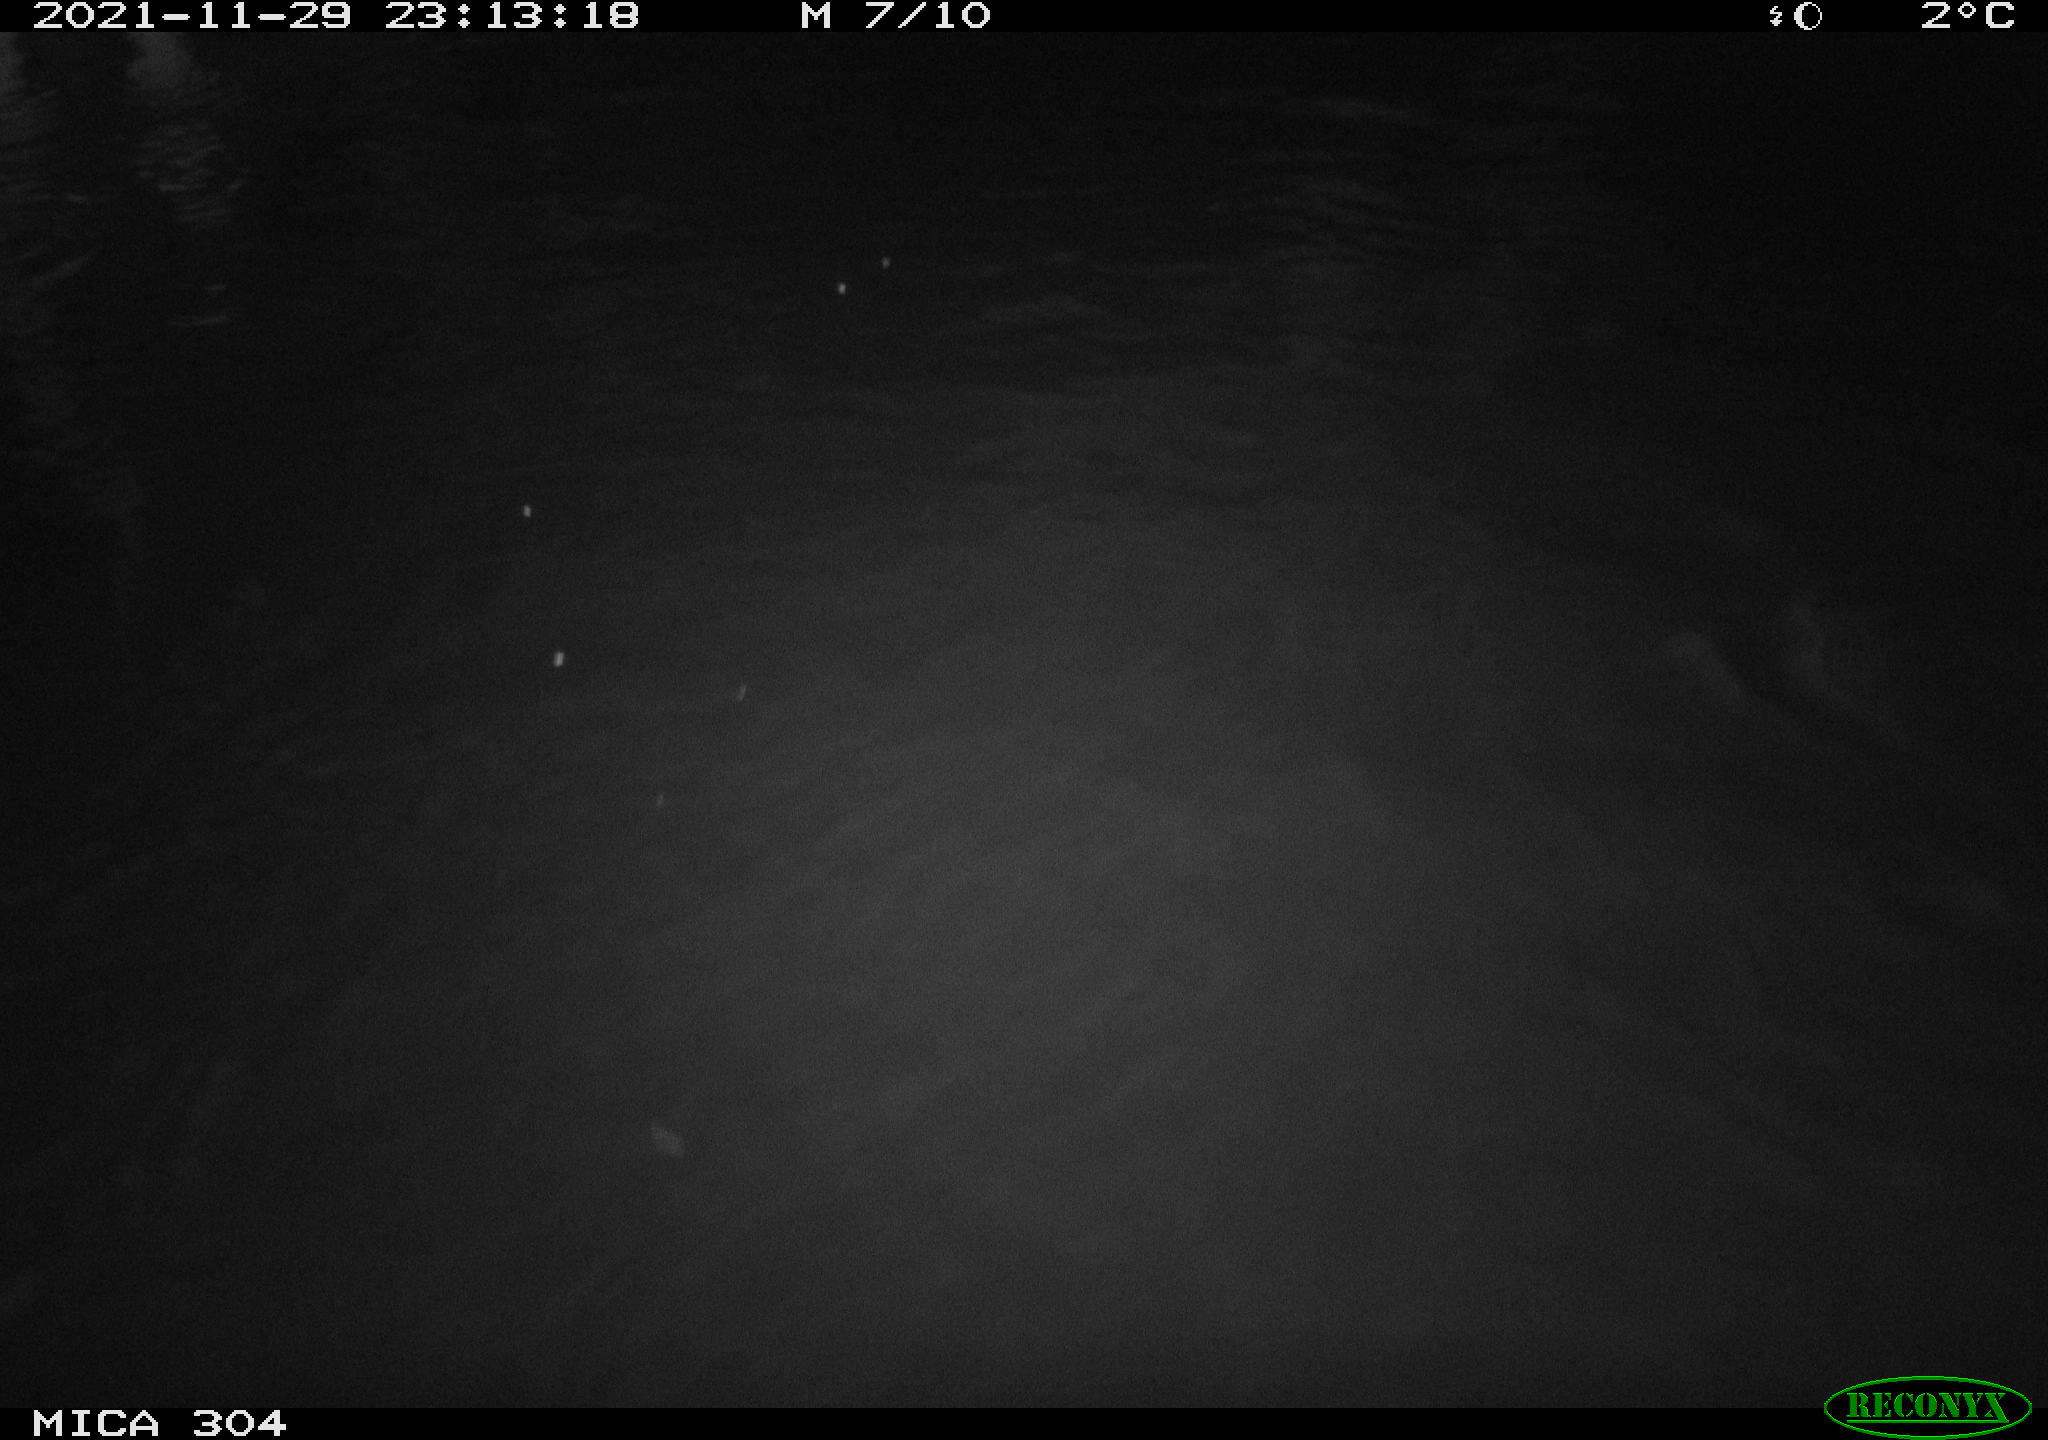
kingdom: Animalia
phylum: Chordata
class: Mammalia
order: Rodentia
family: Muridae
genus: Rattus
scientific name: Rattus norvegicus
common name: Brown rat
